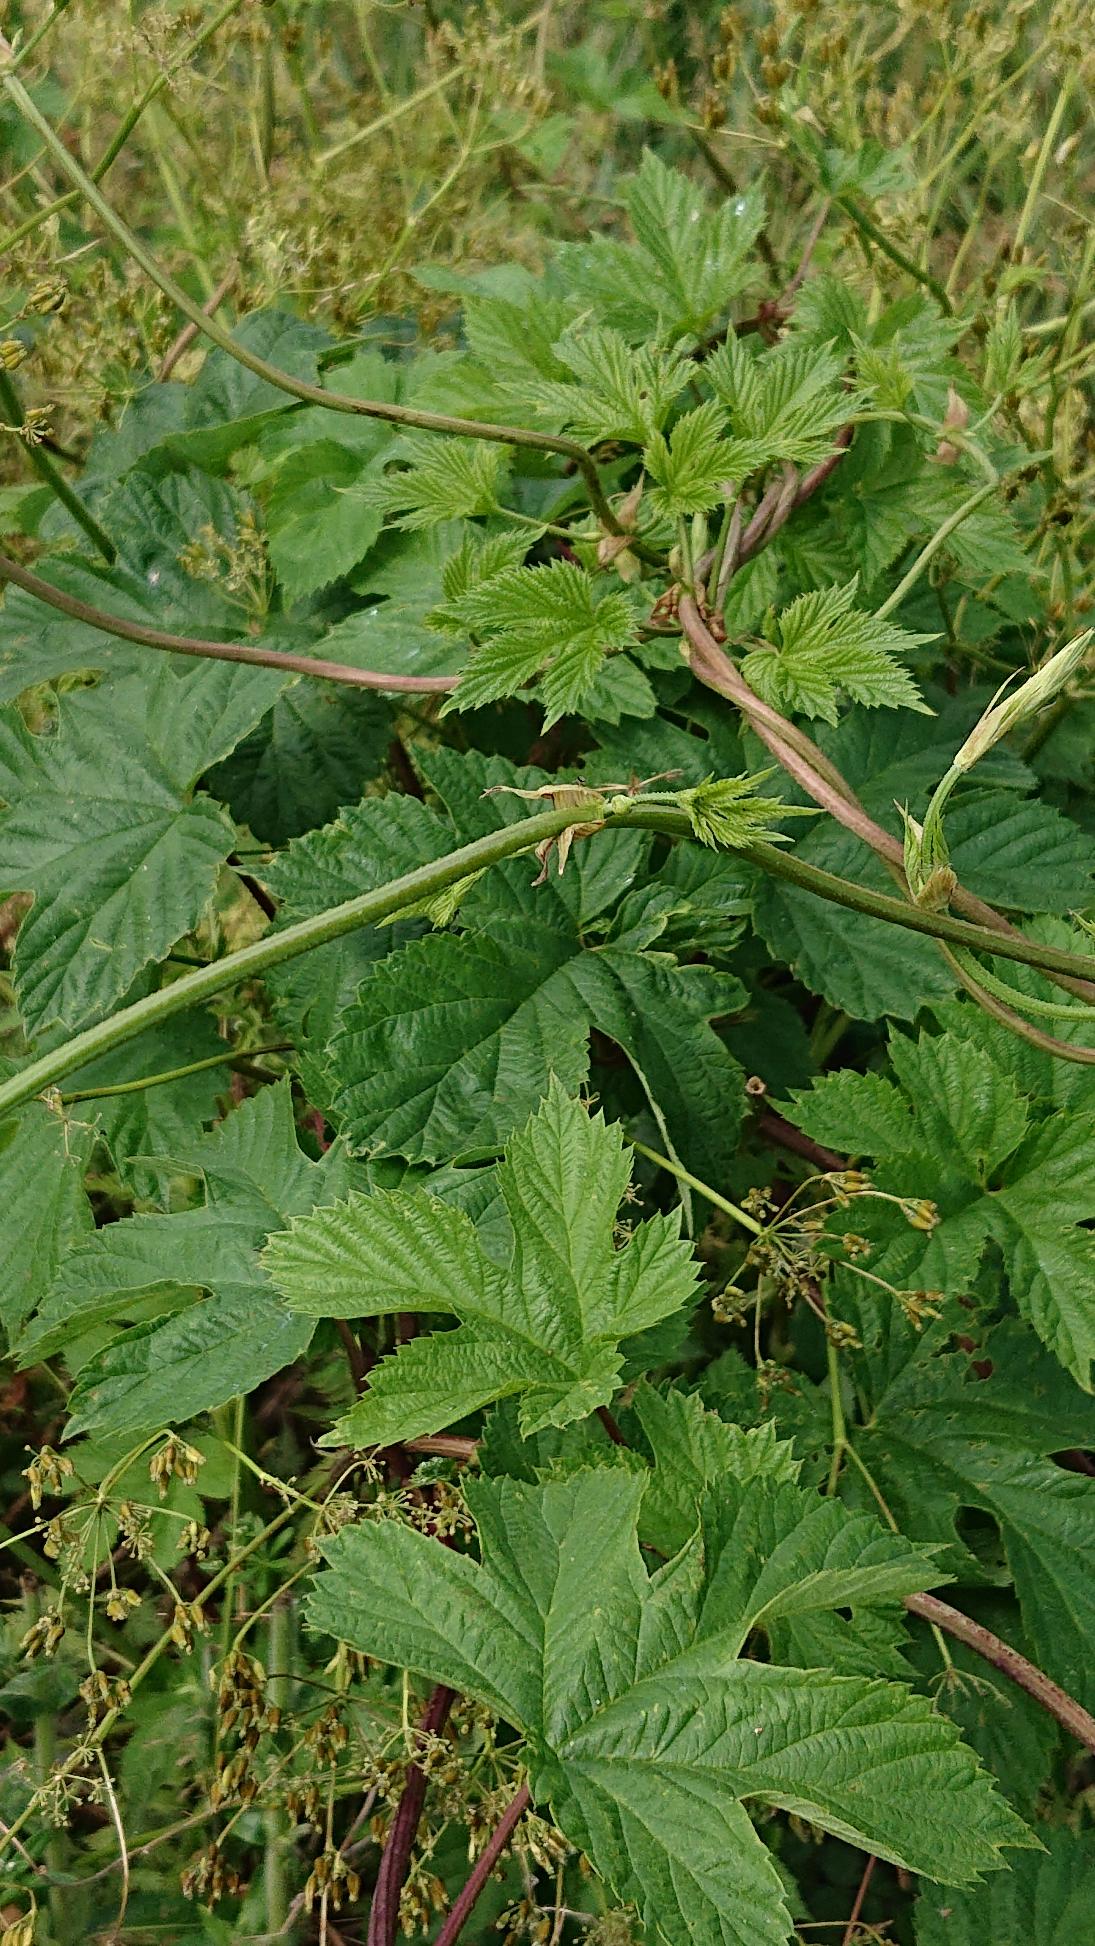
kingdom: Plantae
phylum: Tracheophyta
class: Magnoliopsida
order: Rosales
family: Cannabaceae
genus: Humulus
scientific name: Humulus lupulus
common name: Humle
